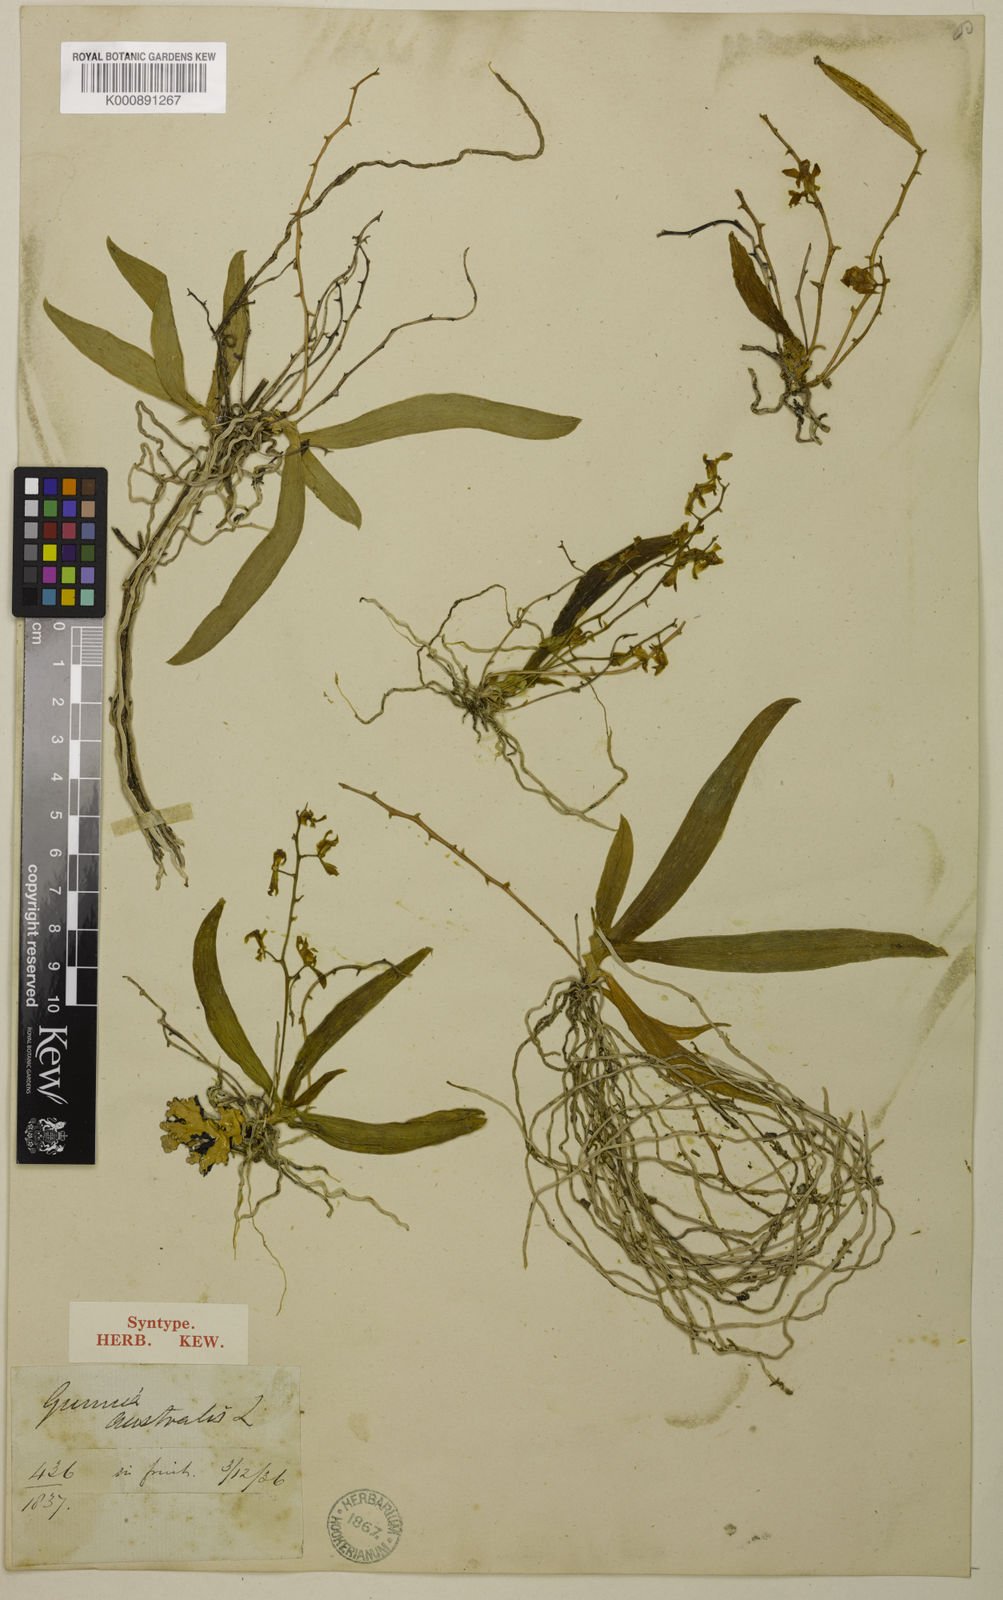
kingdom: Plantae
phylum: Tracheophyta
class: Liliopsida
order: Asparagales
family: Orchidaceae
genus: Sarcochilus
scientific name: Sarcochilus australis
